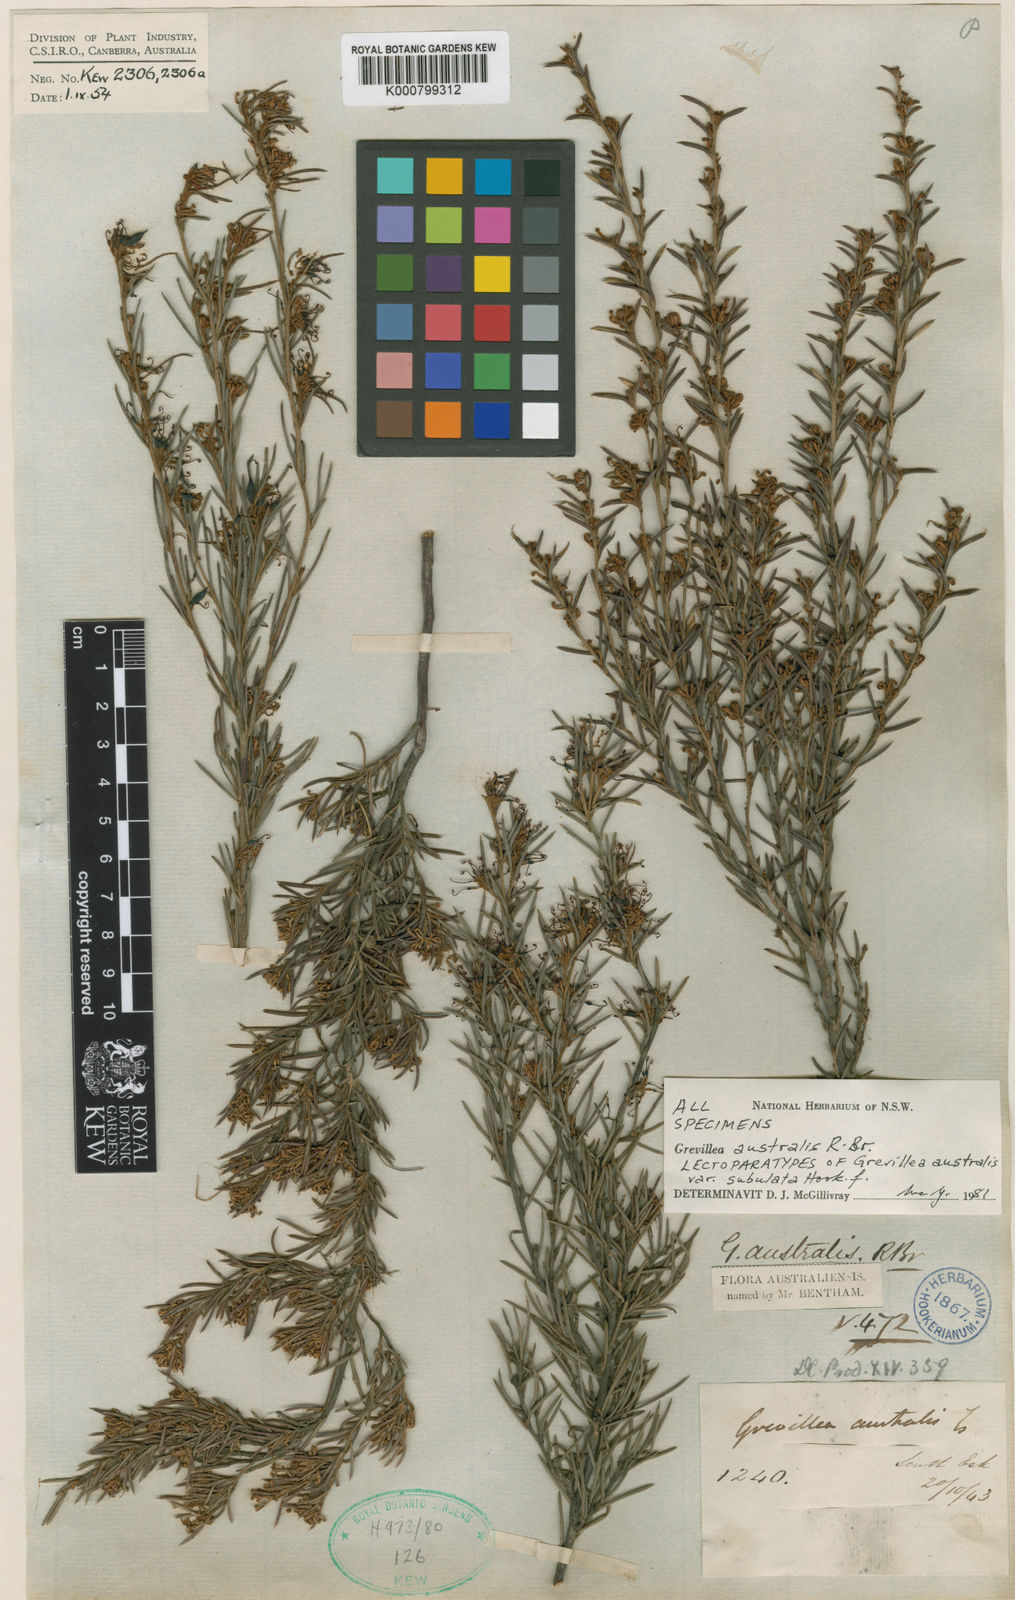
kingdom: Plantae
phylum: Tracheophyta
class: Magnoliopsida
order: Proteales
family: Proteaceae
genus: Grevillea
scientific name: Grevillea australis
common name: Alpine grevillea
